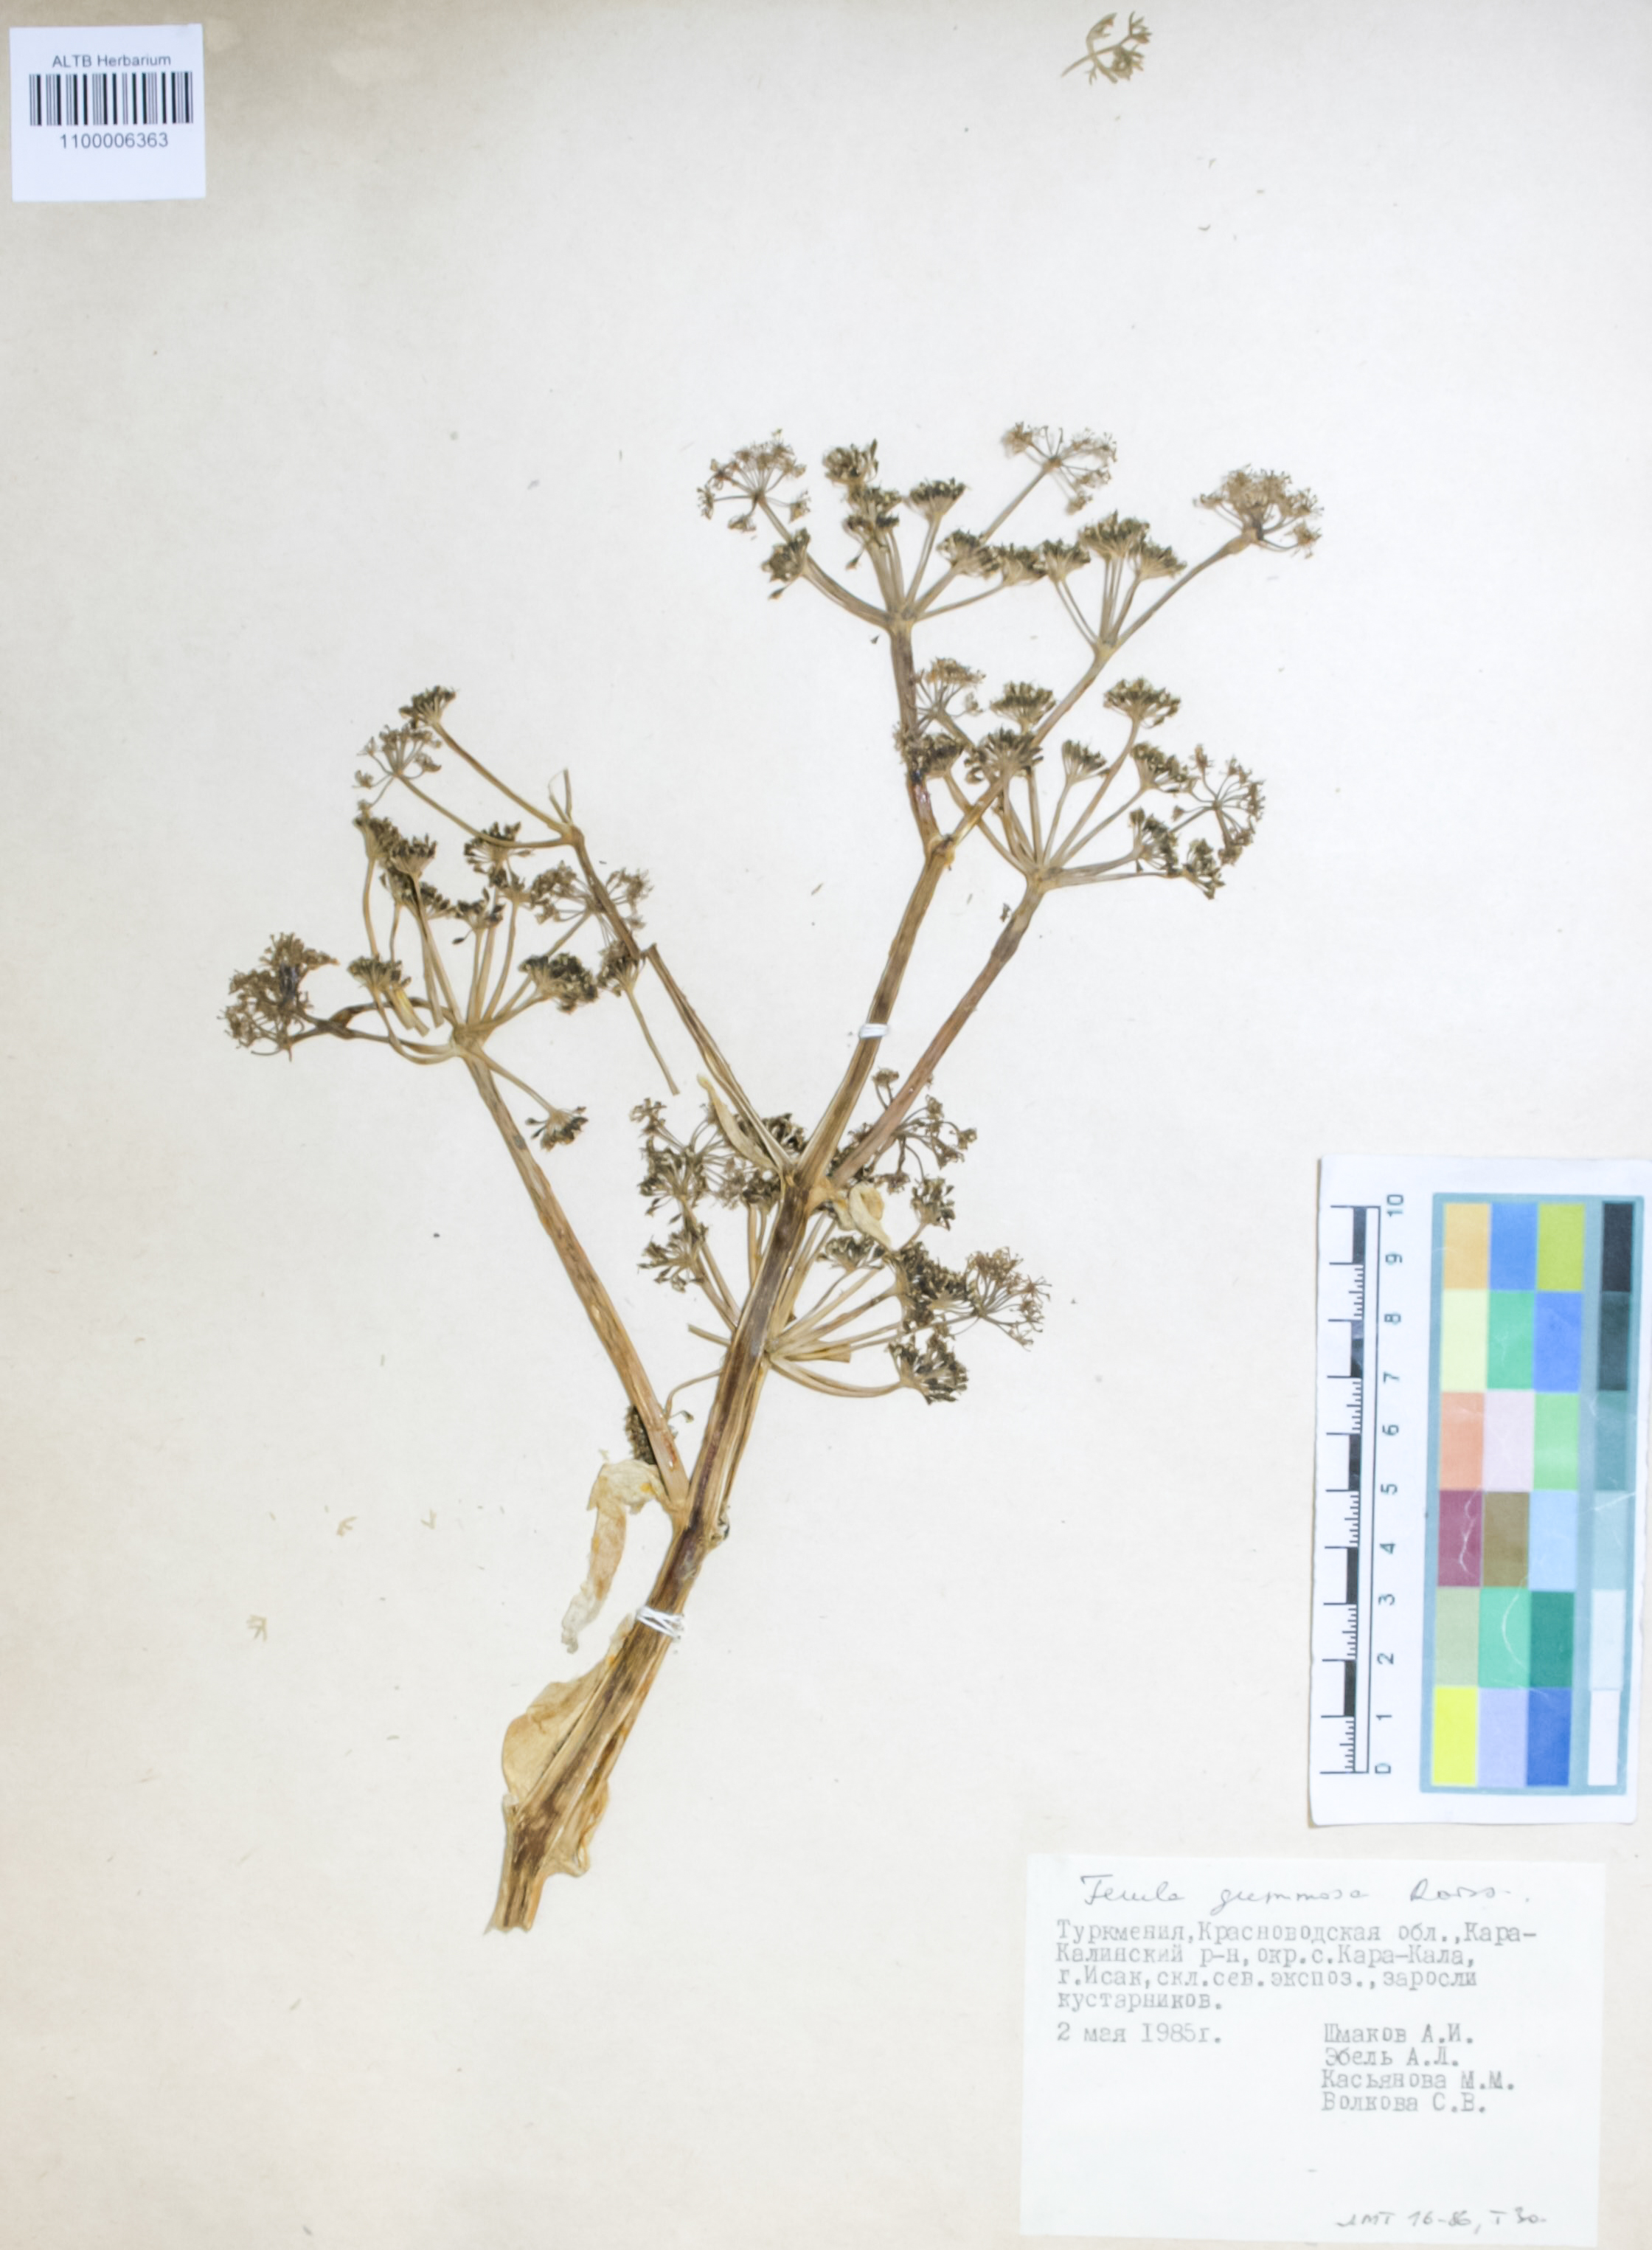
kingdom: Plantae
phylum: Tracheophyta
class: Magnoliopsida
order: Apiales
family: Apiaceae
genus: Ferula
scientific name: Ferula gummosa
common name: Galbanum
